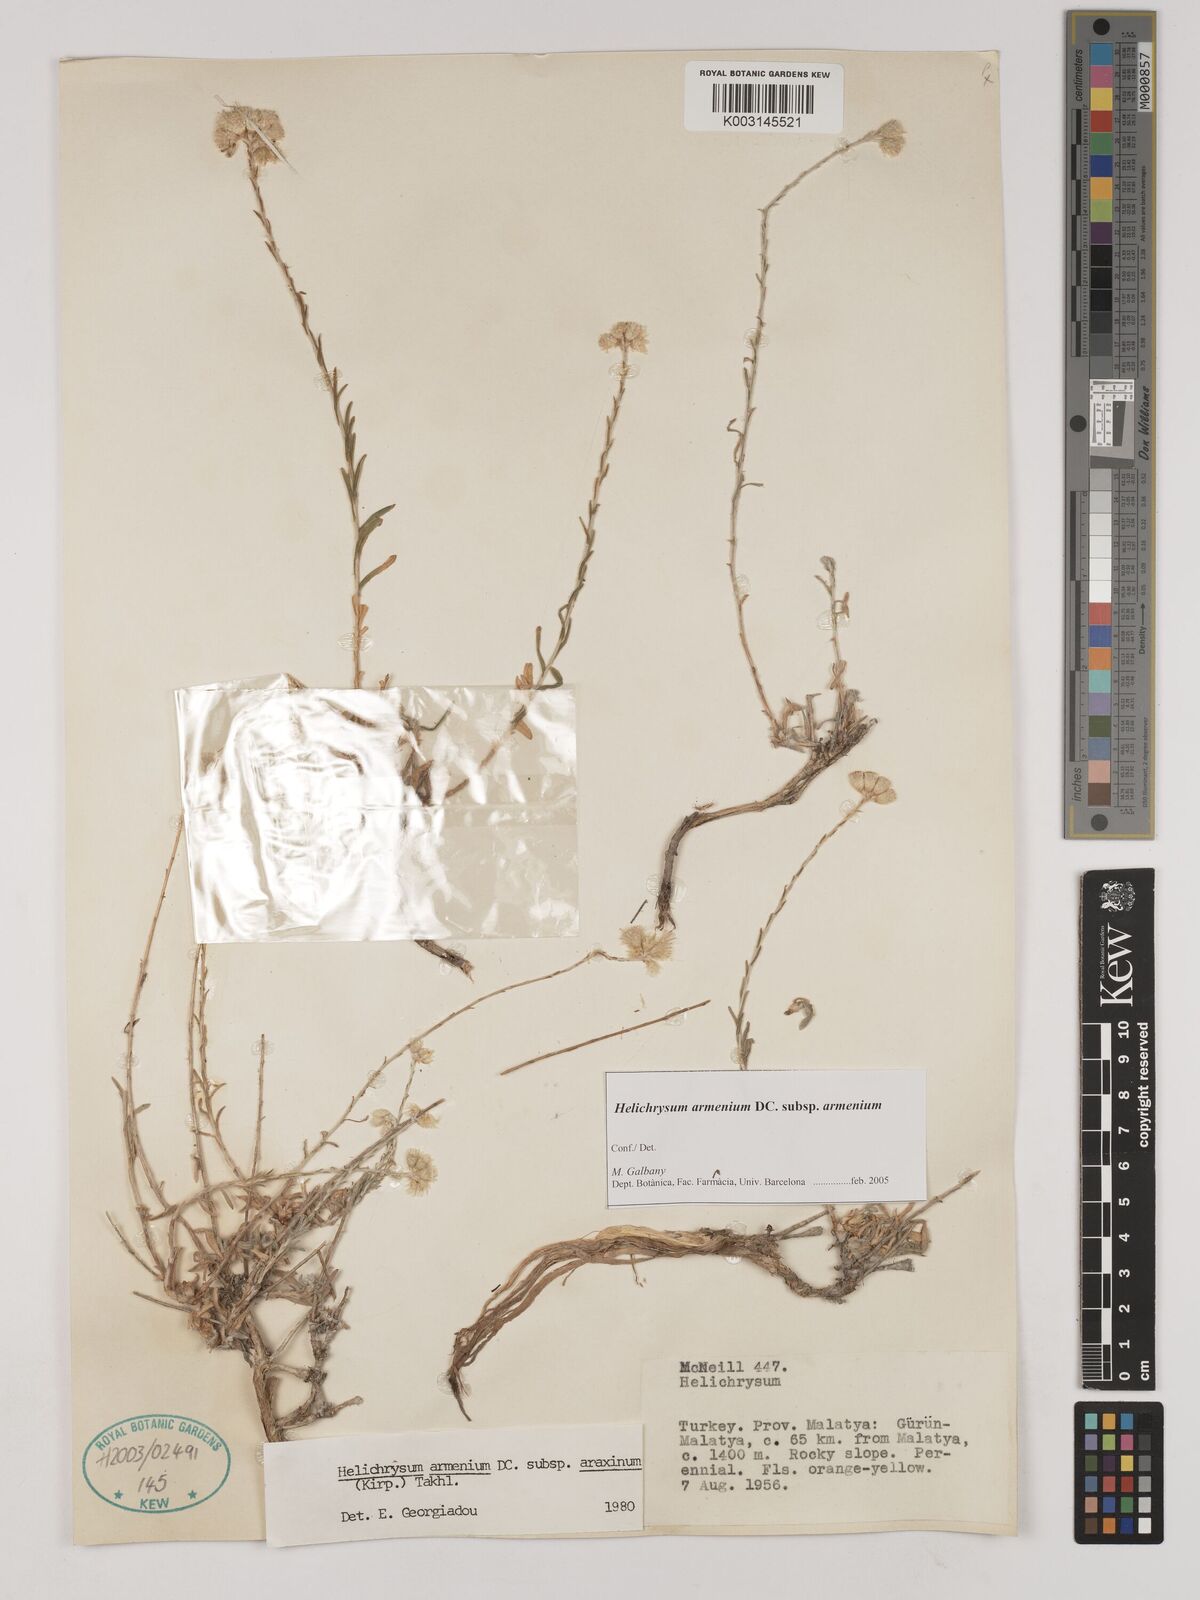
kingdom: Plantae
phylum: Tracheophyta
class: Magnoliopsida
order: Asterales
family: Asteraceae
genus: Helichrysum
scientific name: Helichrysum araxinum
